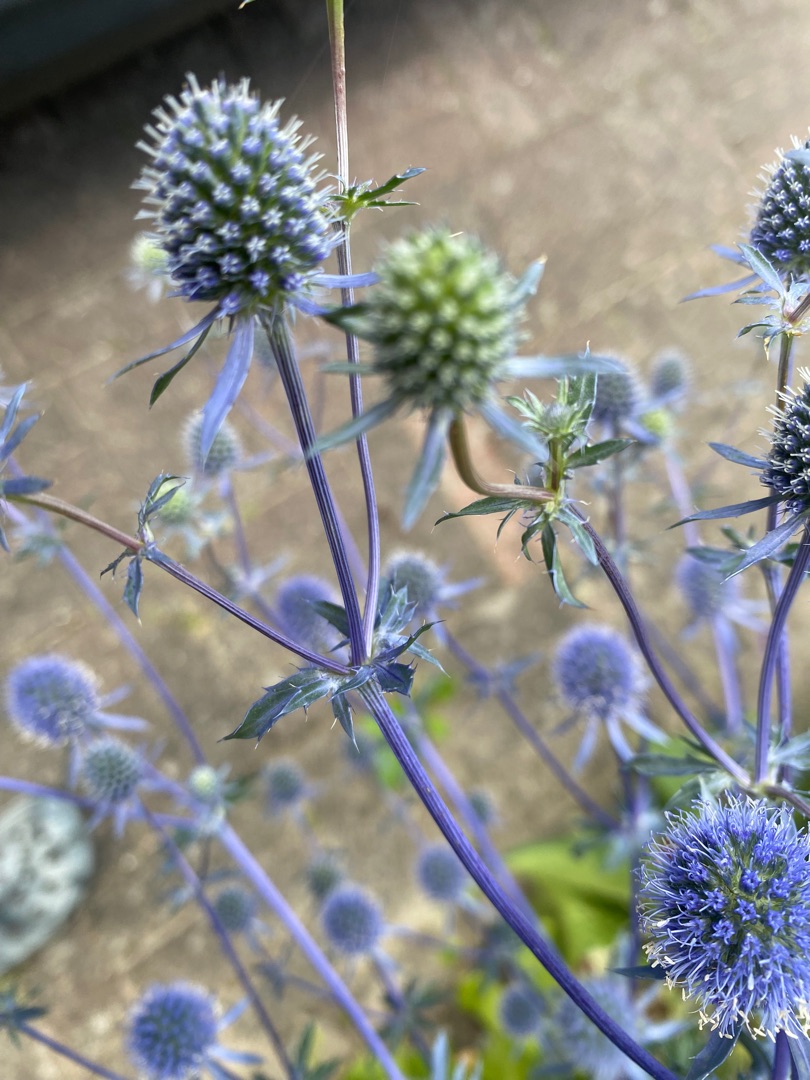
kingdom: Plantae
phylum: Tracheophyta
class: Magnoliopsida
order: Apiales
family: Apiaceae
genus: Eryngium
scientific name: Eryngium planum
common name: Russisk mandstro
